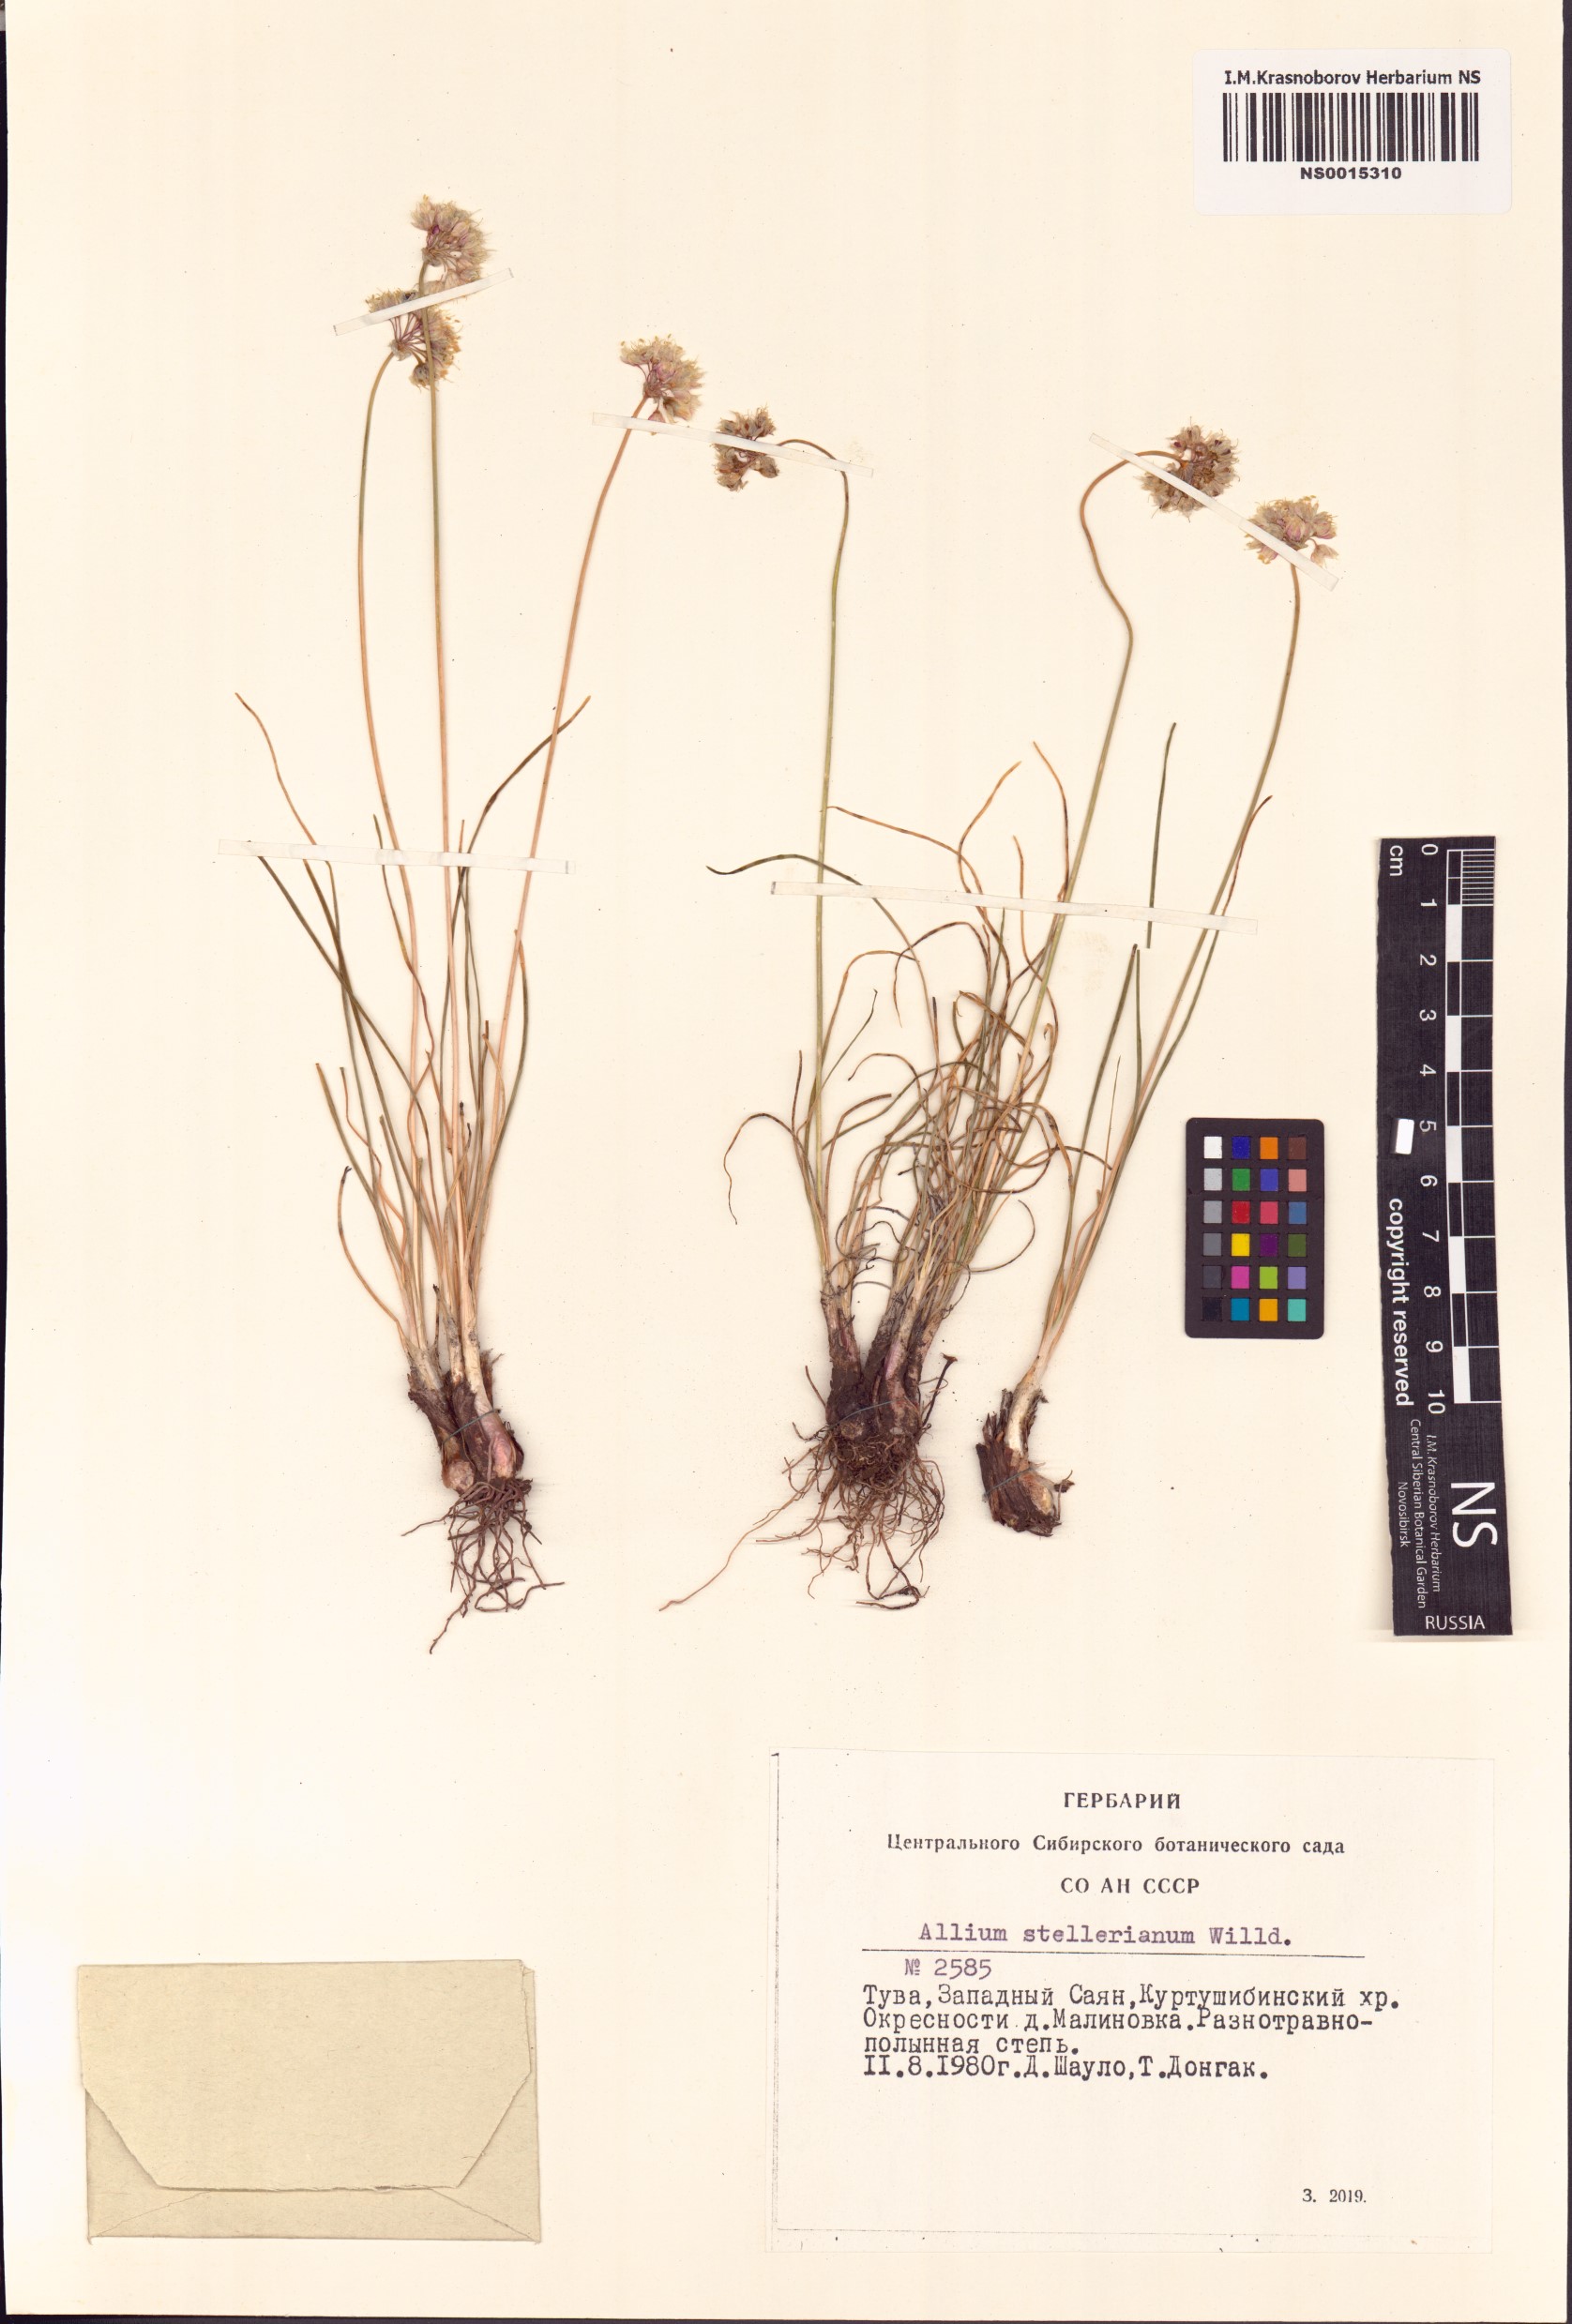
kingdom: Plantae
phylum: Tracheophyta
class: Liliopsida
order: Asparagales
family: Amaryllidaceae
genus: Allium
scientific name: Allium stellerianum
